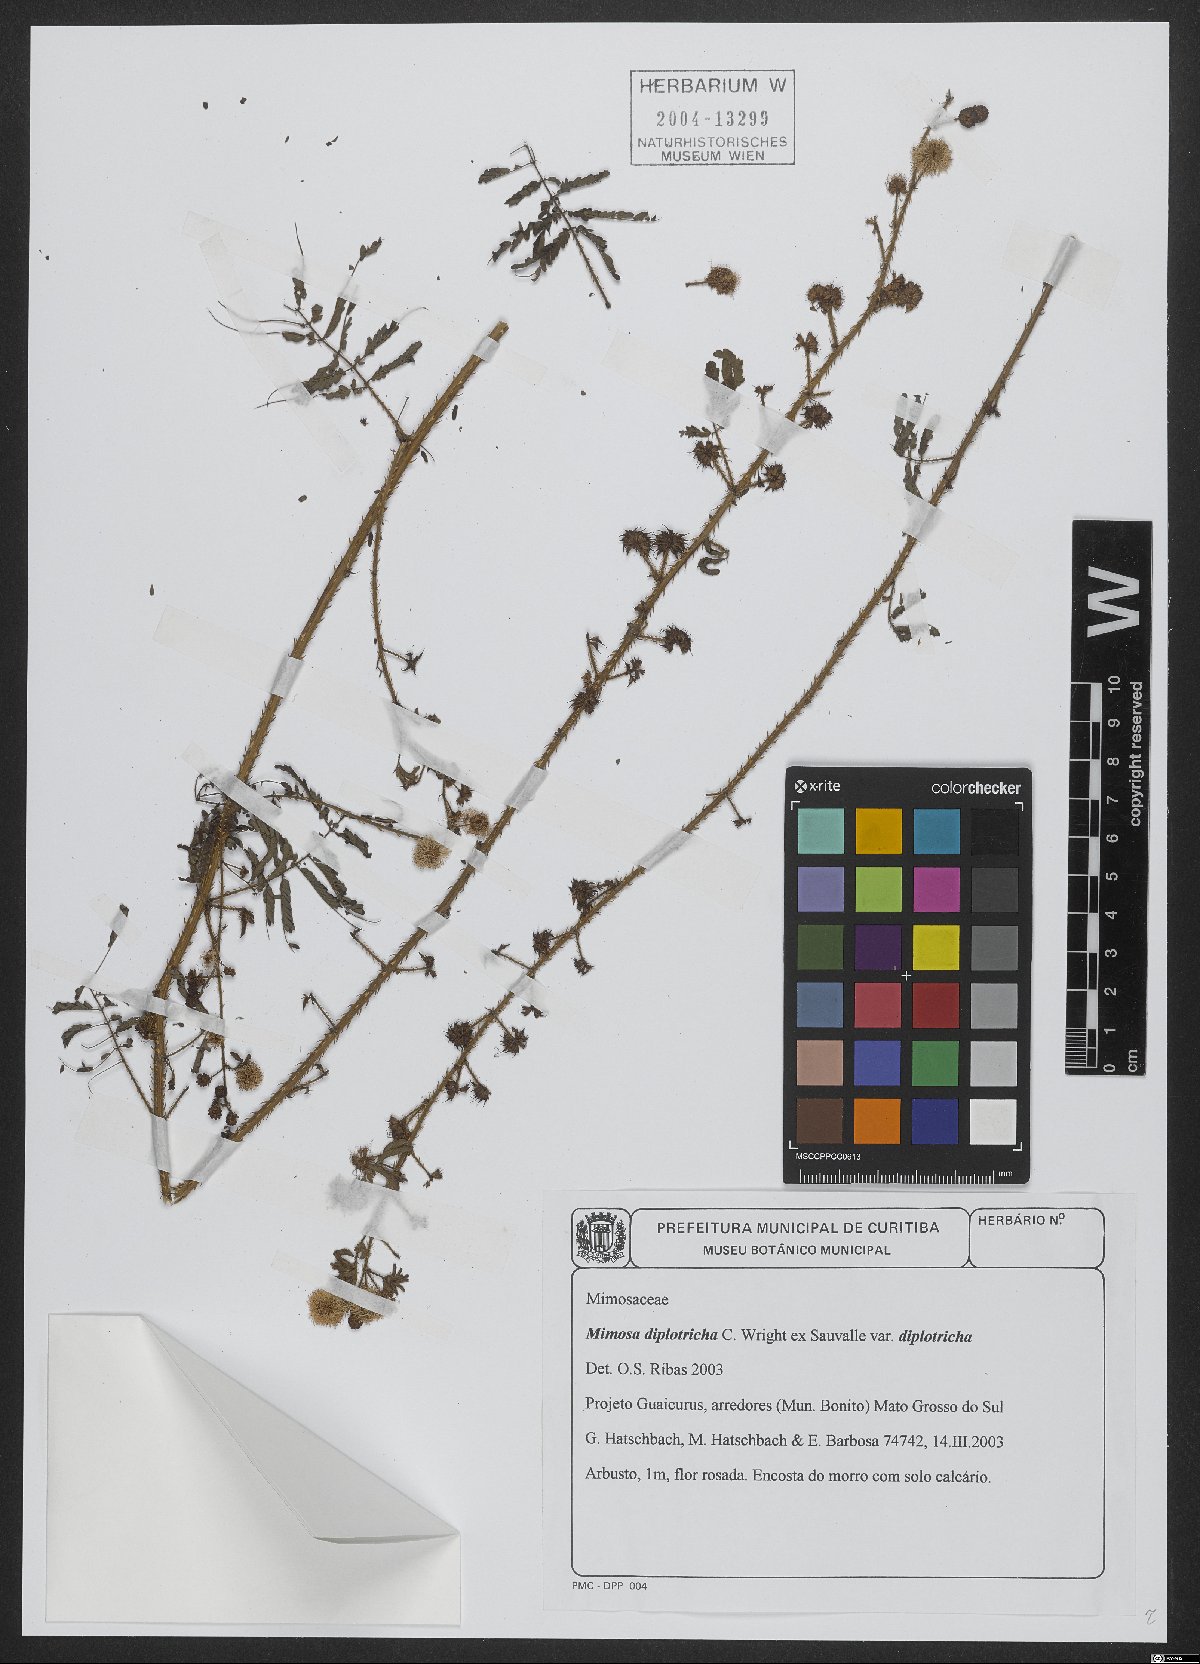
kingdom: Plantae
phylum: Tracheophyta
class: Magnoliopsida
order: Fabales
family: Fabaceae
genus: Mimosa
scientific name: Mimosa diplotricha
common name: Giant sensitive-plant
